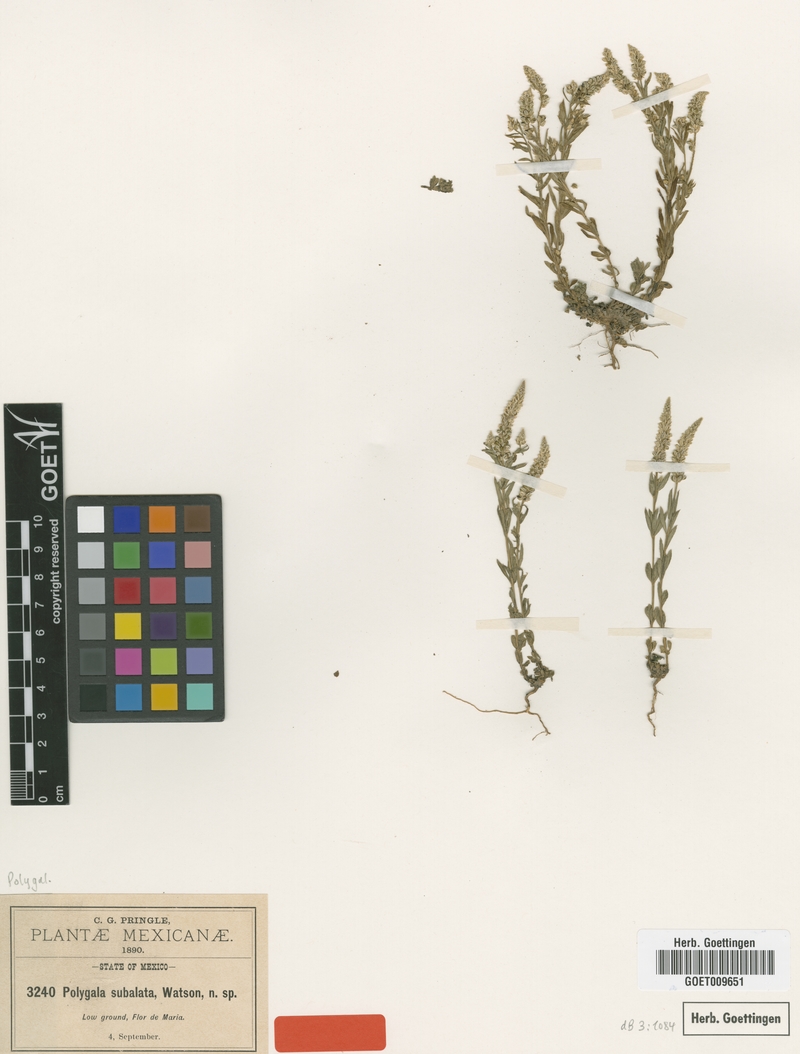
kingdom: Plantae
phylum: Tracheophyta
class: Magnoliopsida
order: Fabales
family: Polygalaceae
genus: Polygala
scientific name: Polygala subalata
